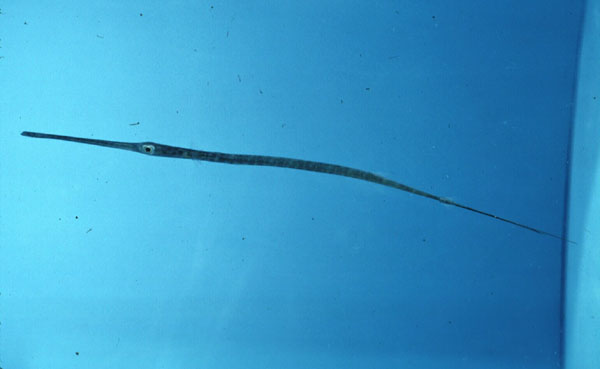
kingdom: Animalia
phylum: Chordata
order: Syngnathiformes
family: Fistulariidae
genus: Fistularia
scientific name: Fistularia commersonii
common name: Bluespotted cornetfish
